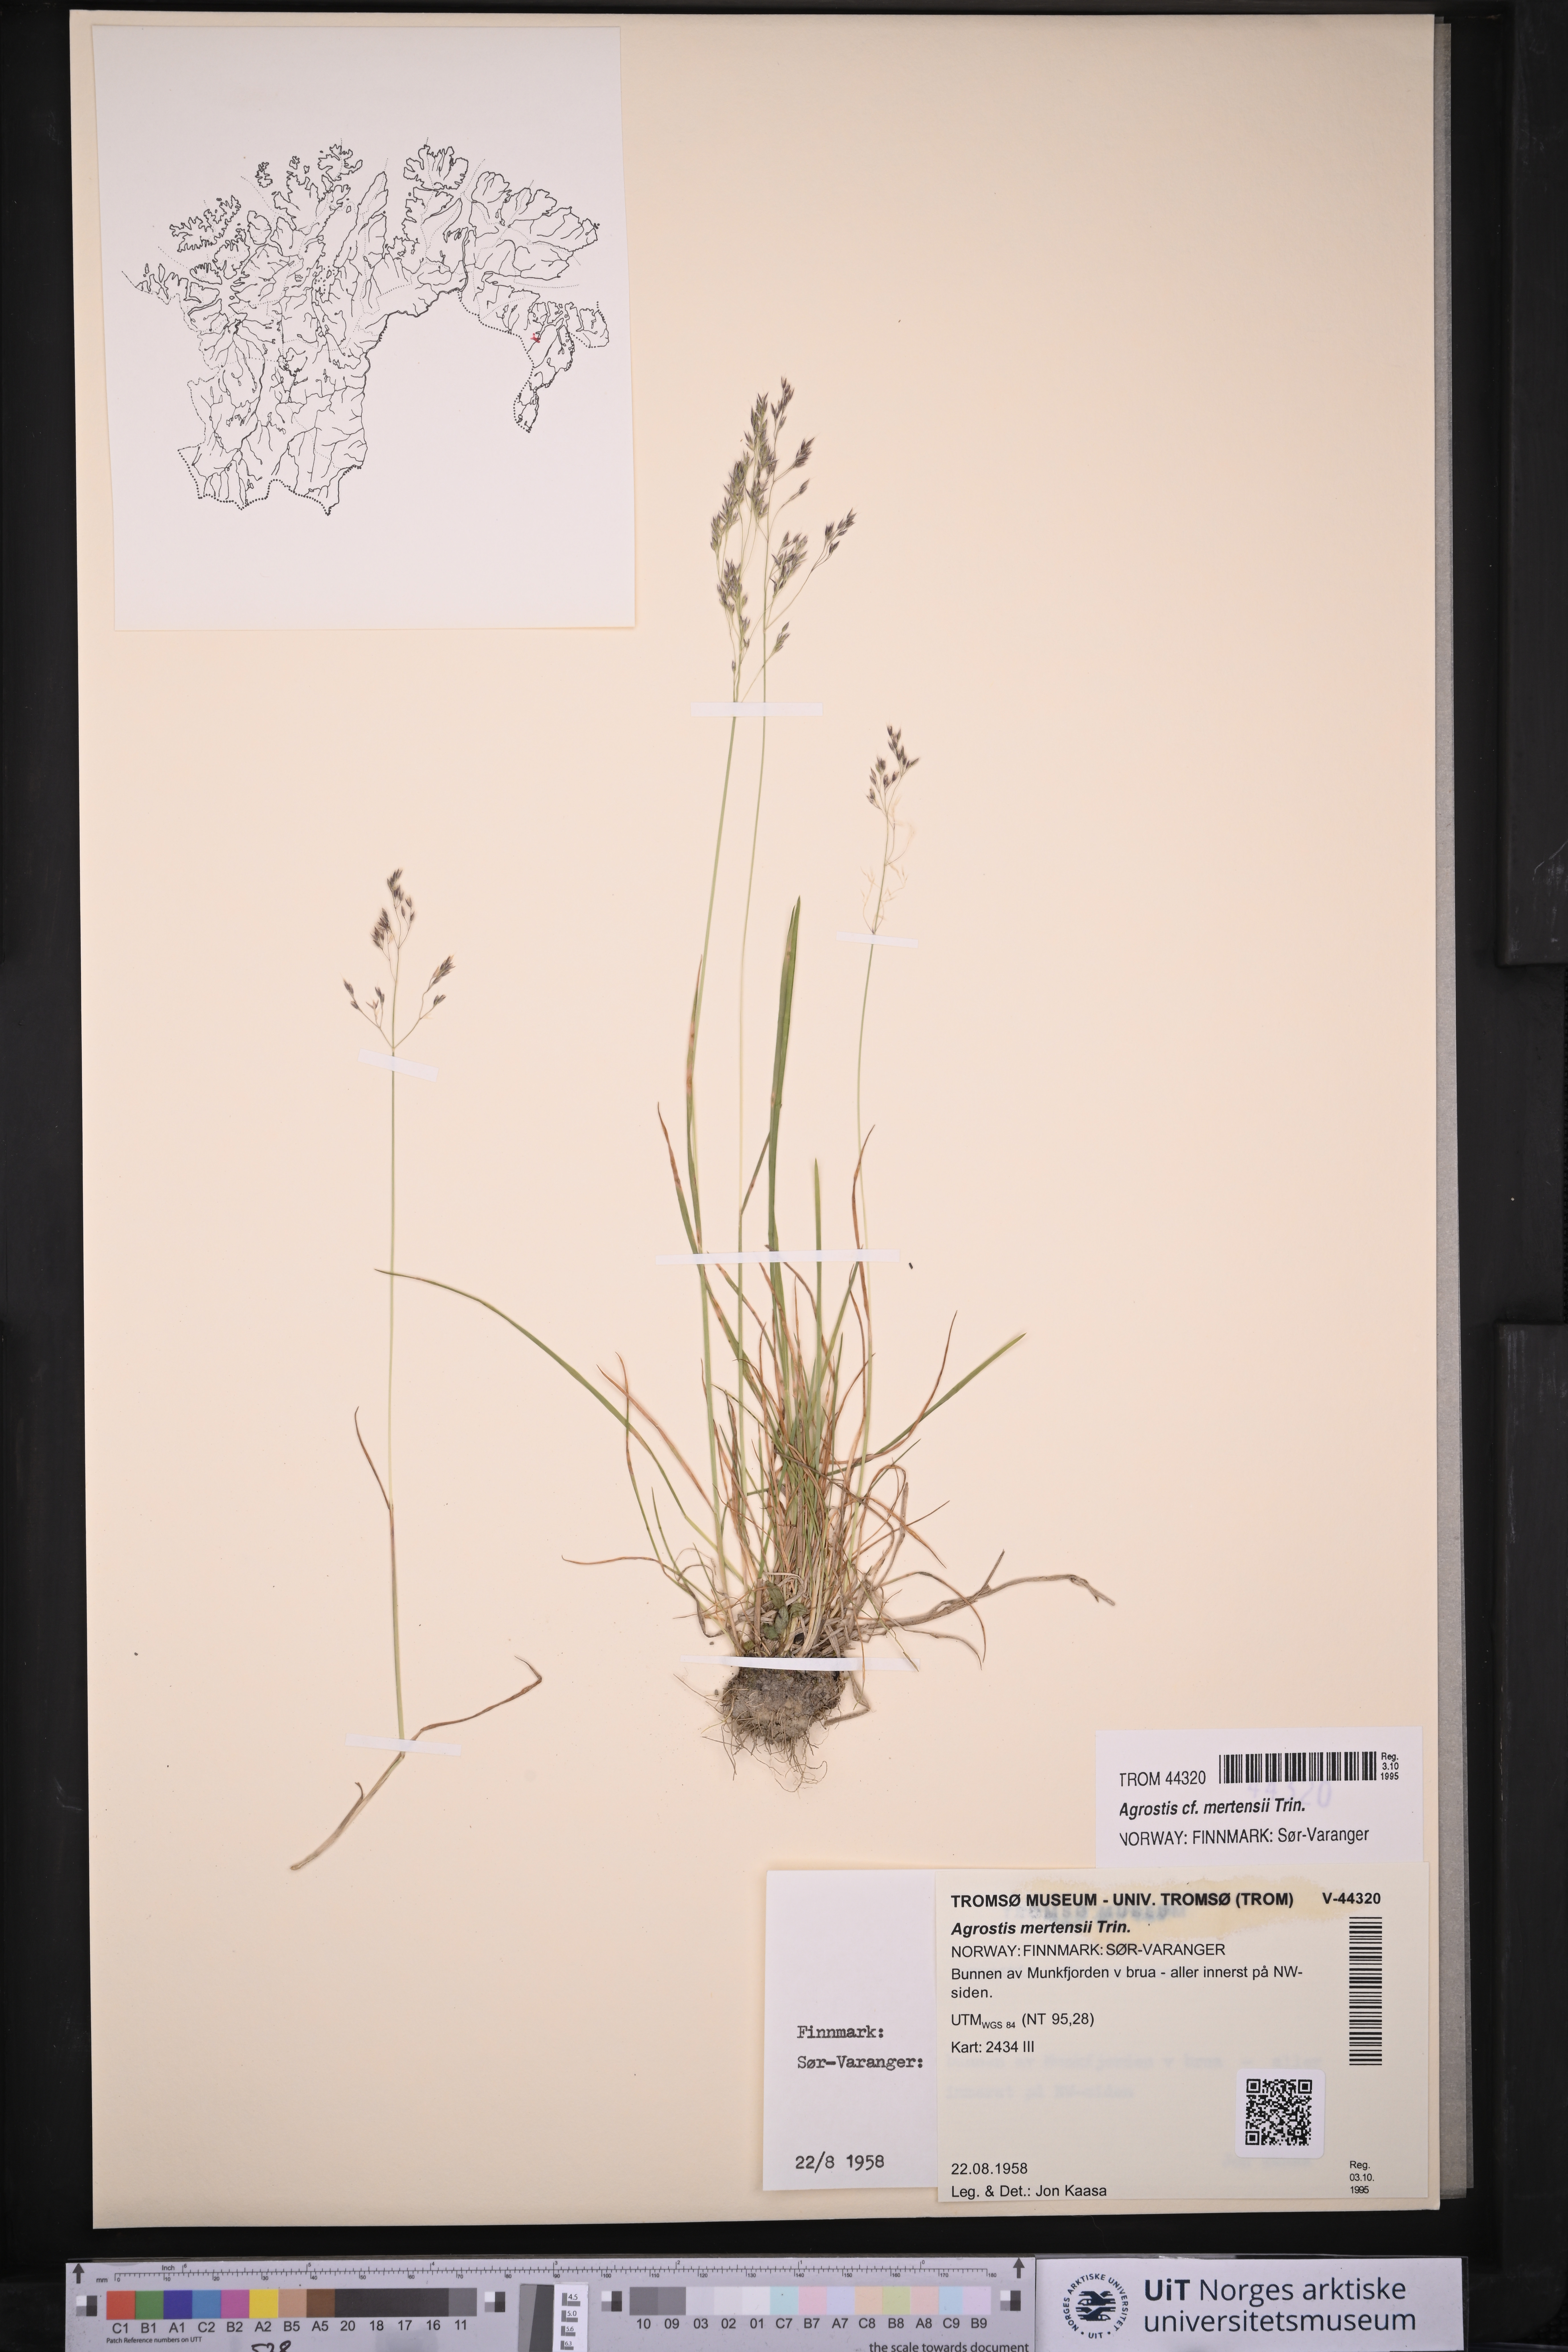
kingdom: Plantae
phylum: Tracheophyta
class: Liliopsida
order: Poales
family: Poaceae
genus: Agrostis
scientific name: Agrostis mertensii
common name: Northern bent
